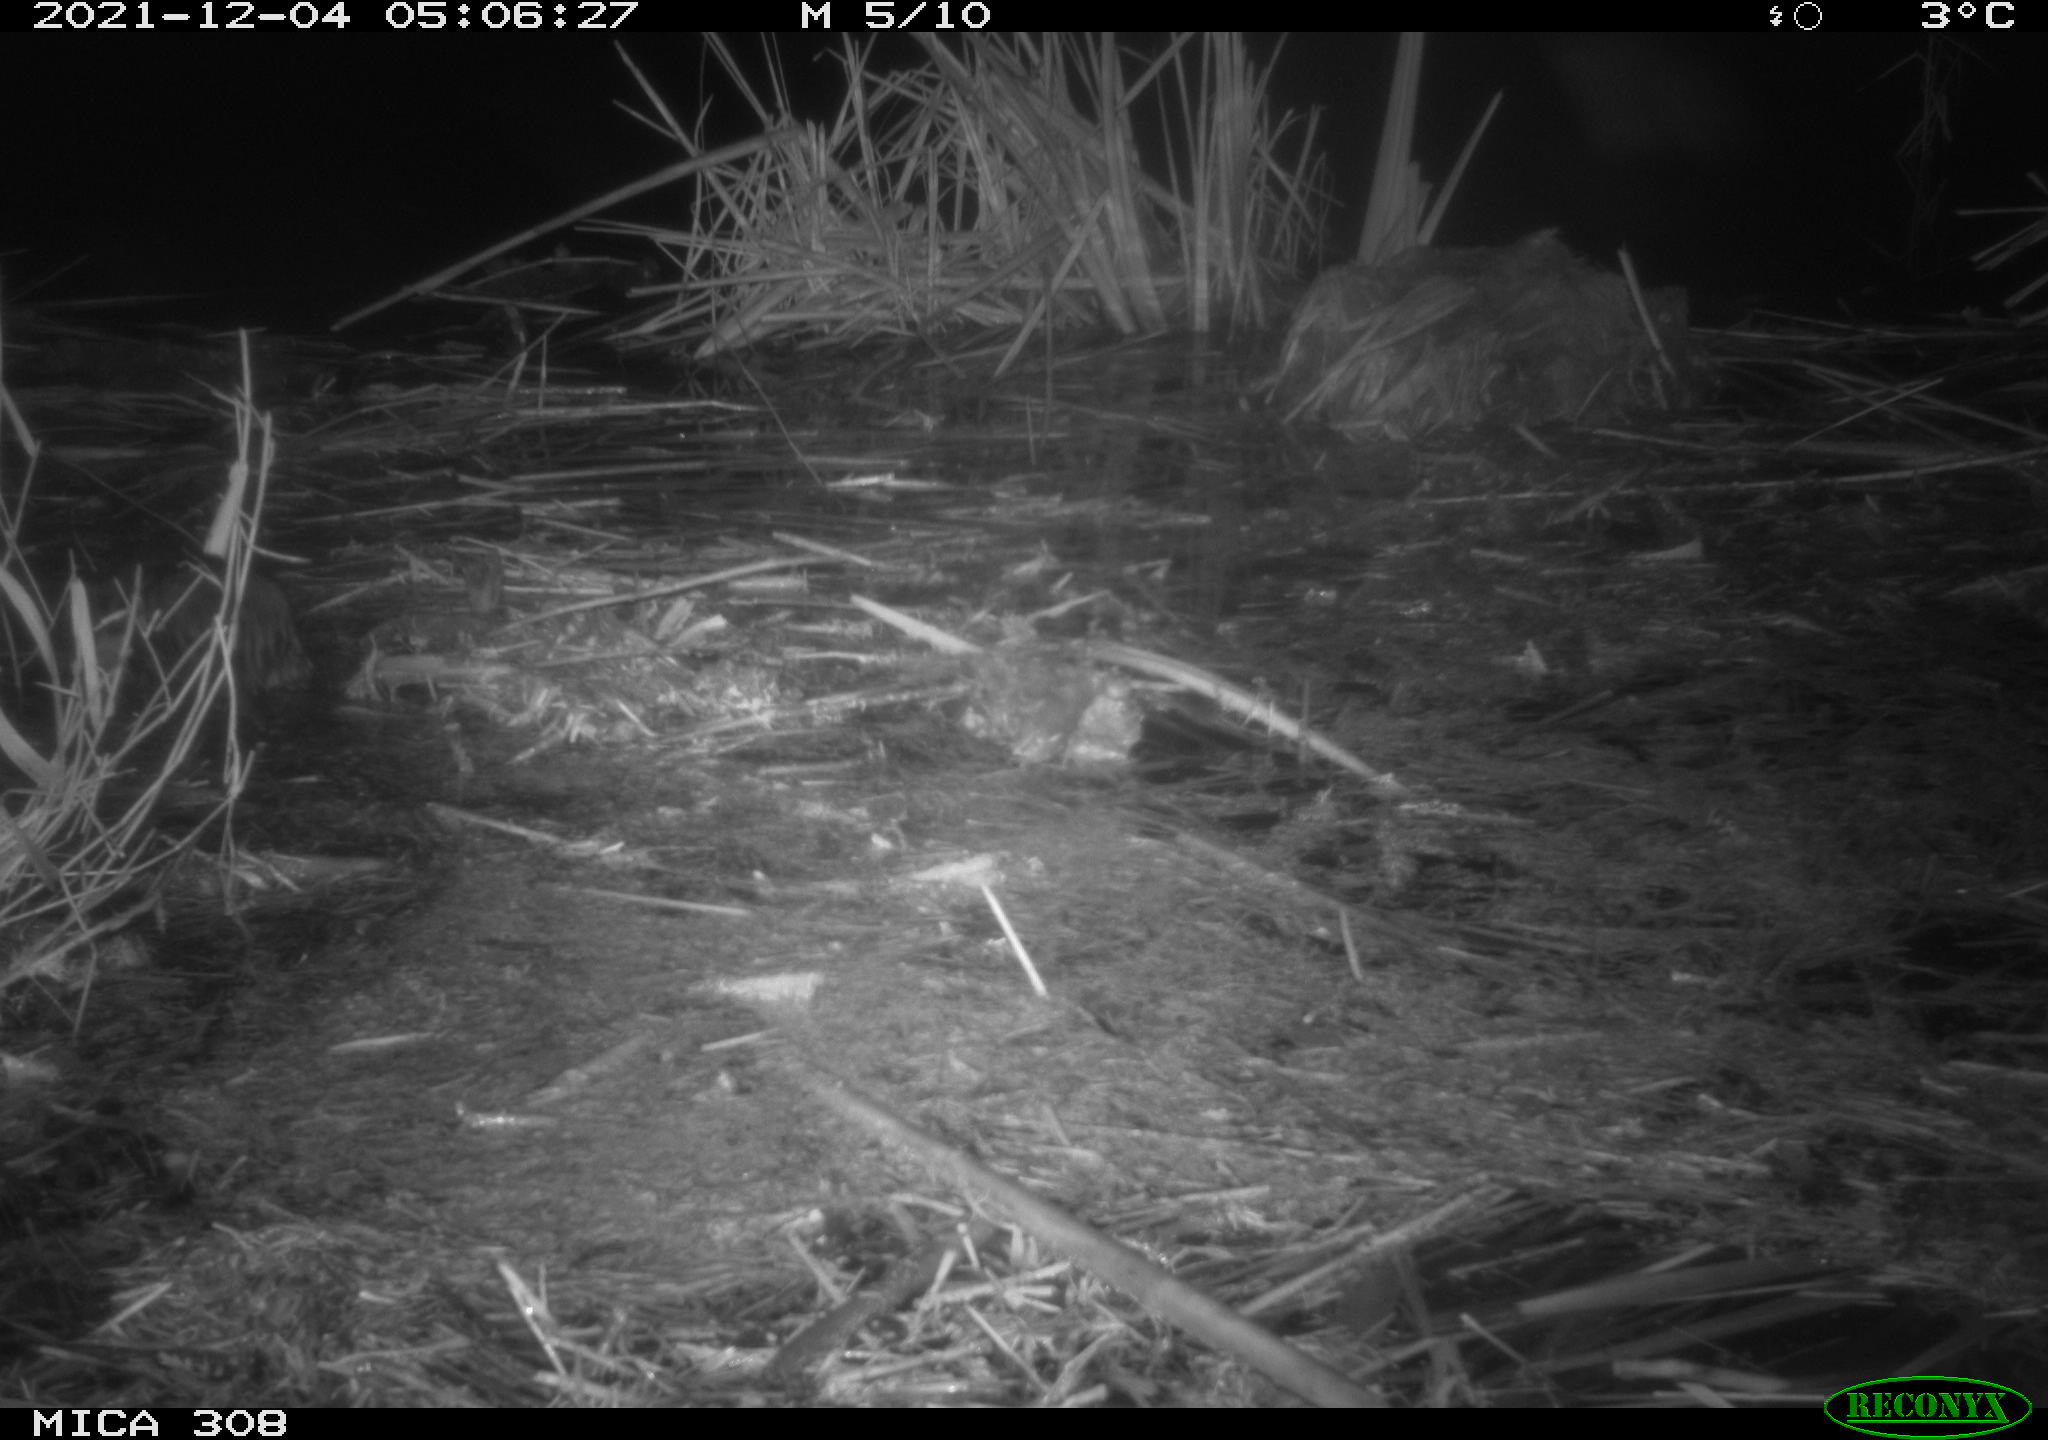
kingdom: Animalia
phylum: Chordata
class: Mammalia
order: Rodentia
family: Cricetidae
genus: Ondatra
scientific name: Ondatra zibethicus
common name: Muskrat
